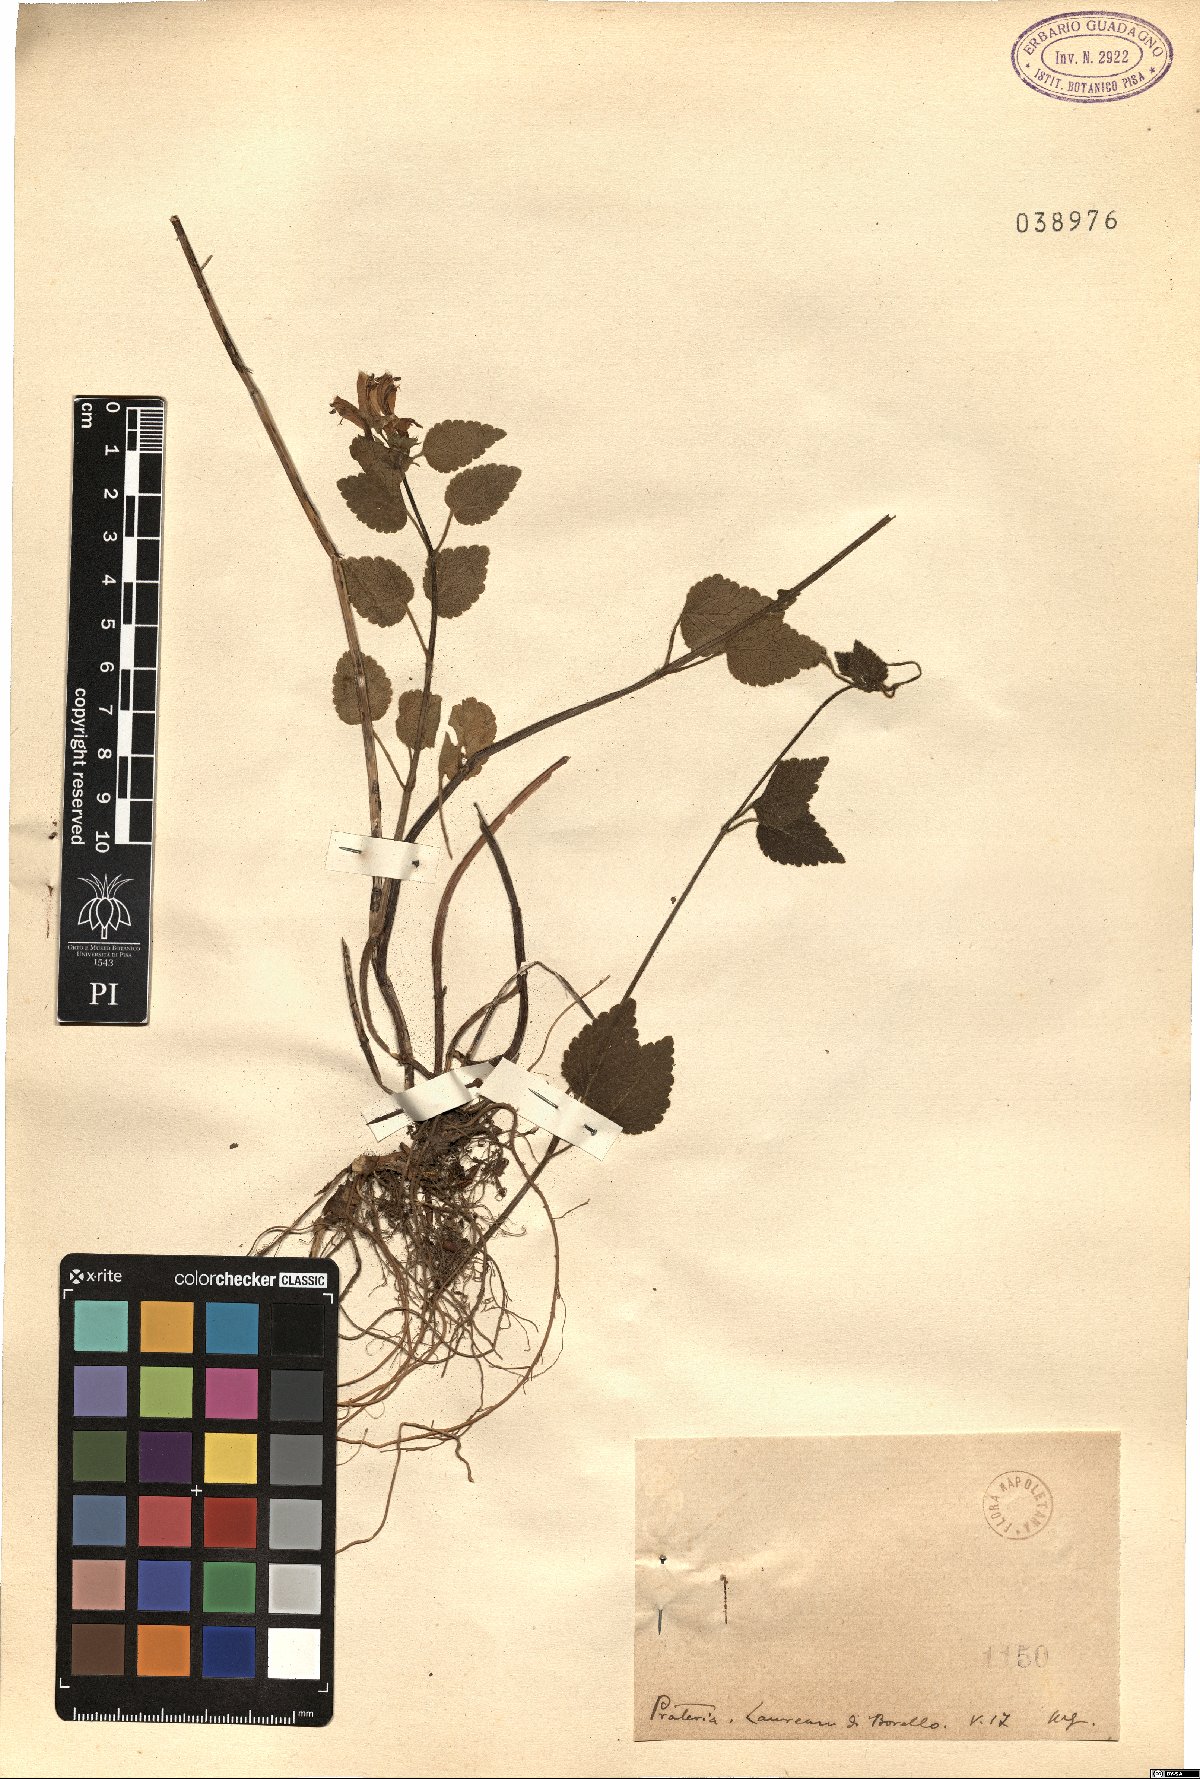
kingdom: Plantae
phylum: Tracheophyta
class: Magnoliopsida
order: Lamiales
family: Lamiaceae
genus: Lamium
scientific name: Lamium
